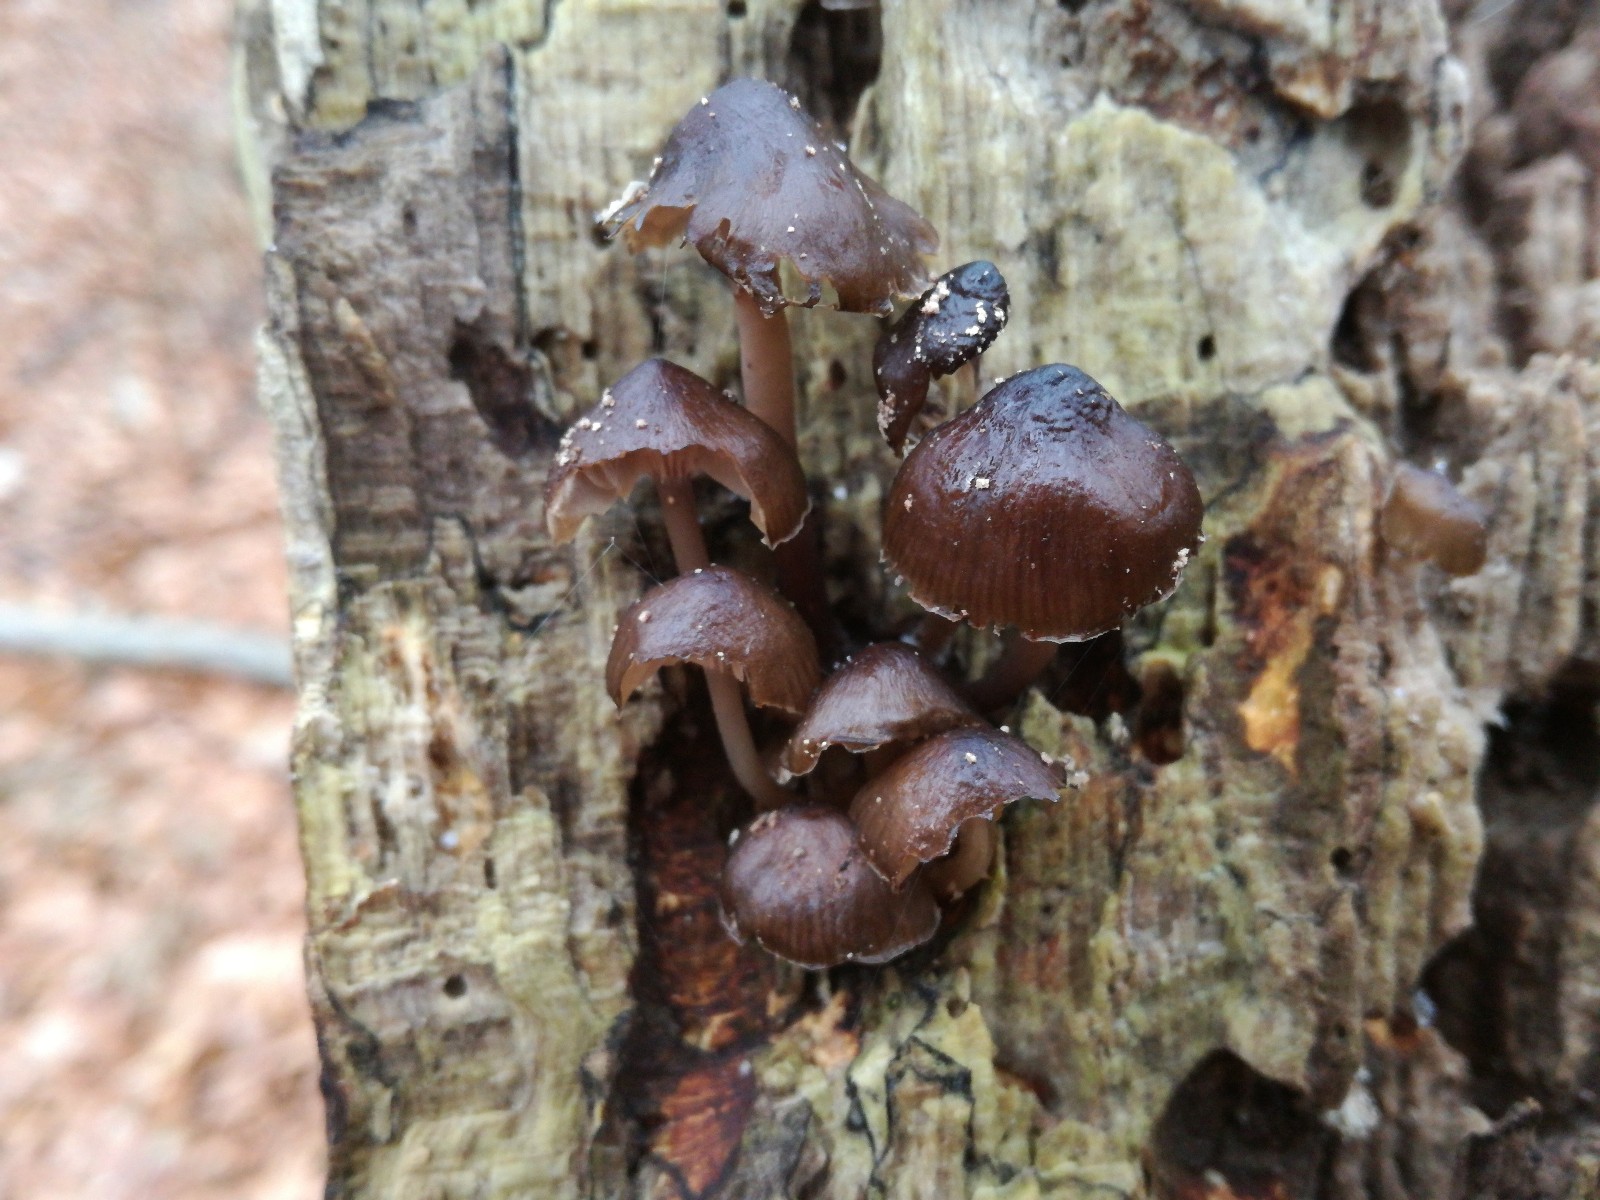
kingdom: Fungi
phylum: Basidiomycota
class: Agaricomycetes
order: Agaricales
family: Mycenaceae
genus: Mycena
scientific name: Mycena tintinnabulum
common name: vinter-huesvamp
